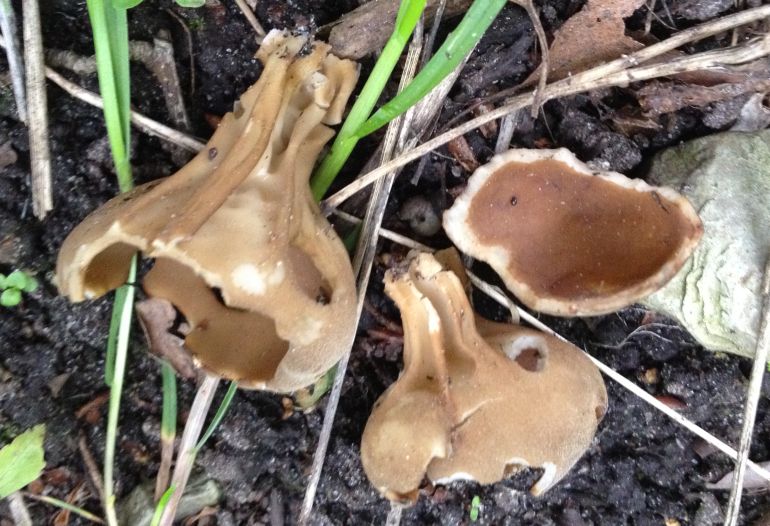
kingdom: Fungi
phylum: Ascomycota
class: Pezizomycetes
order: Pezizales
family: Helvellaceae
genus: Helvella
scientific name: Helvella acetabulum
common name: pokal-foldhat
